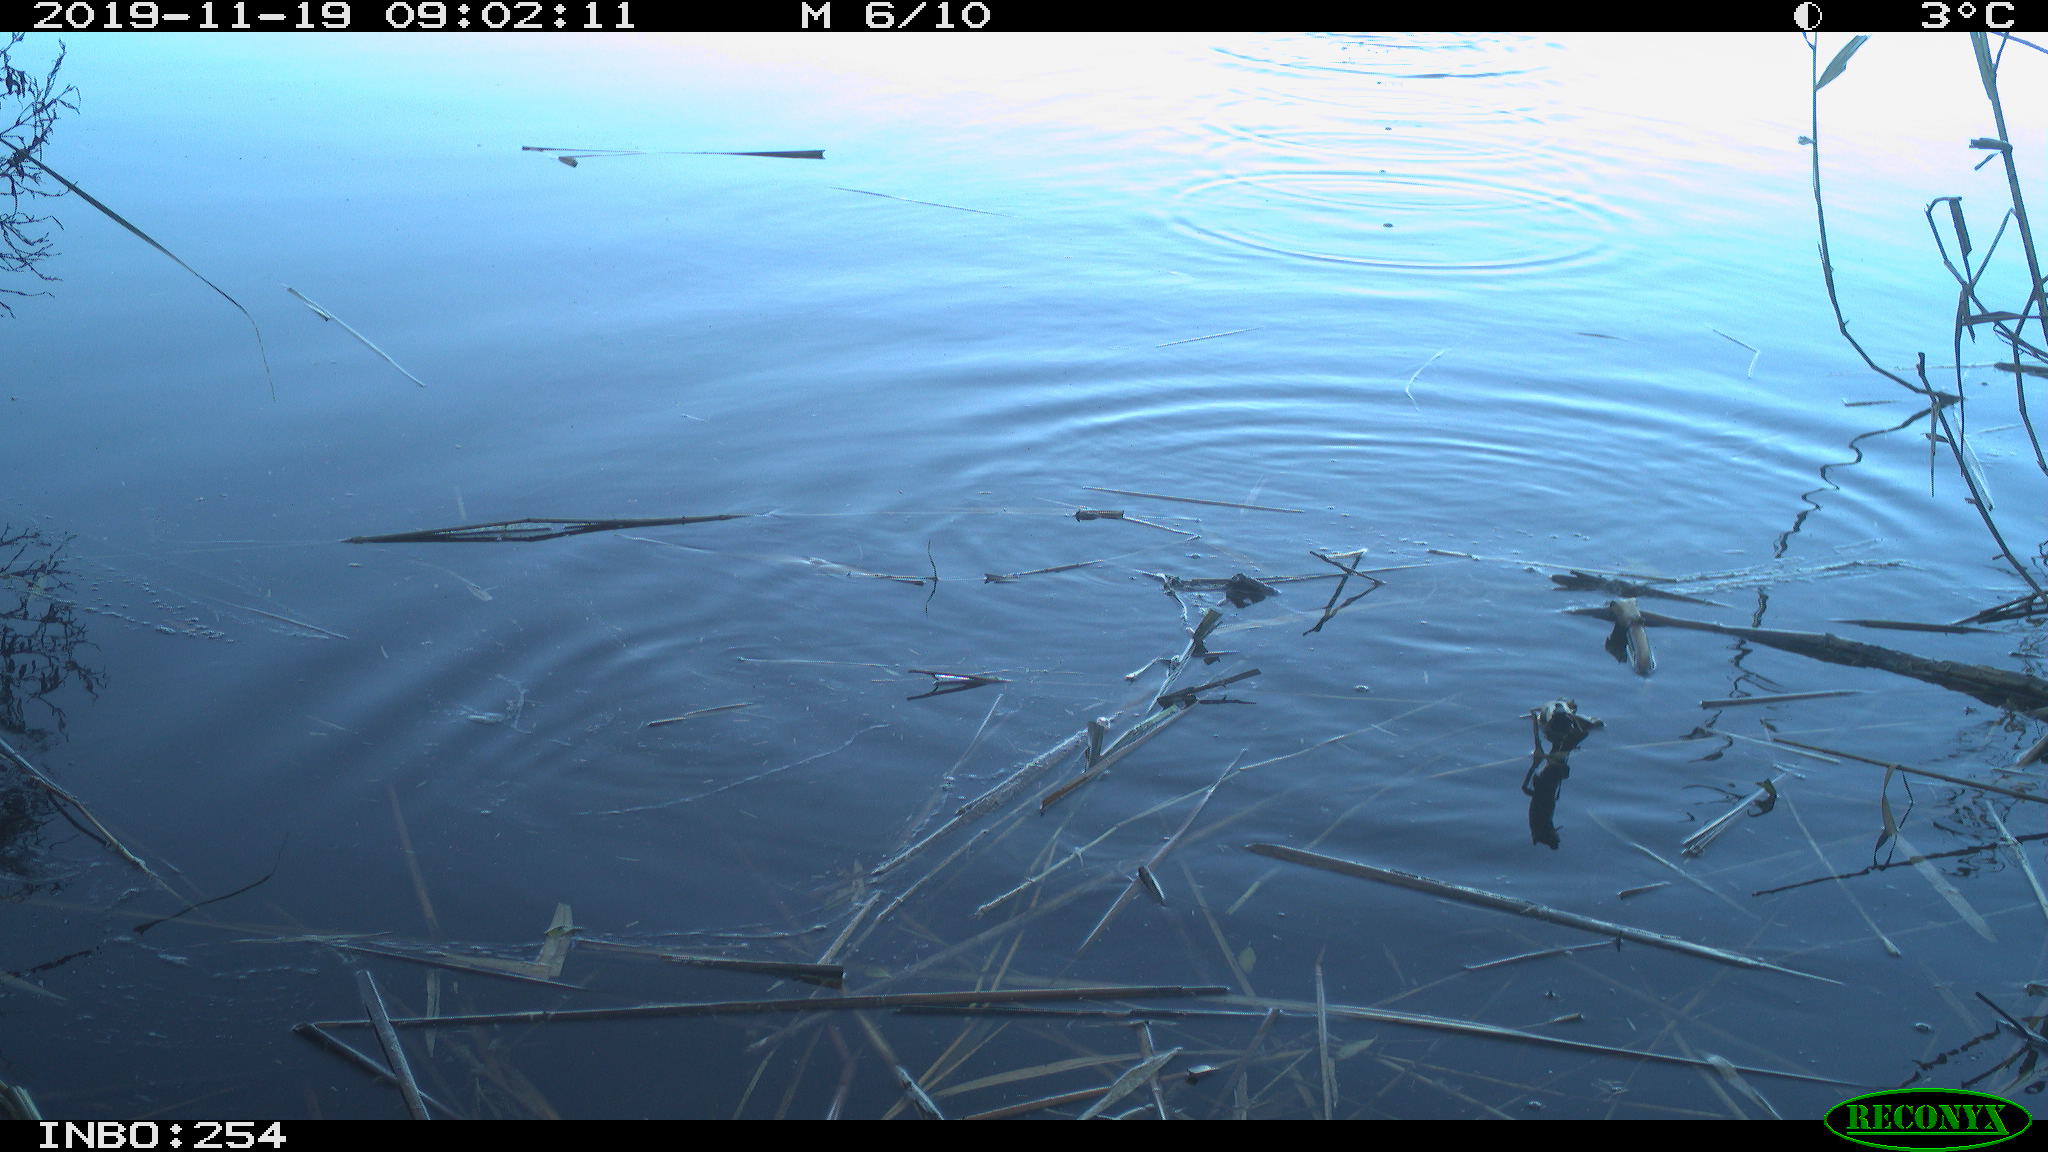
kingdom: Animalia
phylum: Chordata
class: Aves
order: Gruiformes
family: Rallidae
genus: Gallinula
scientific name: Gallinula chloropus
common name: Common moorhen
